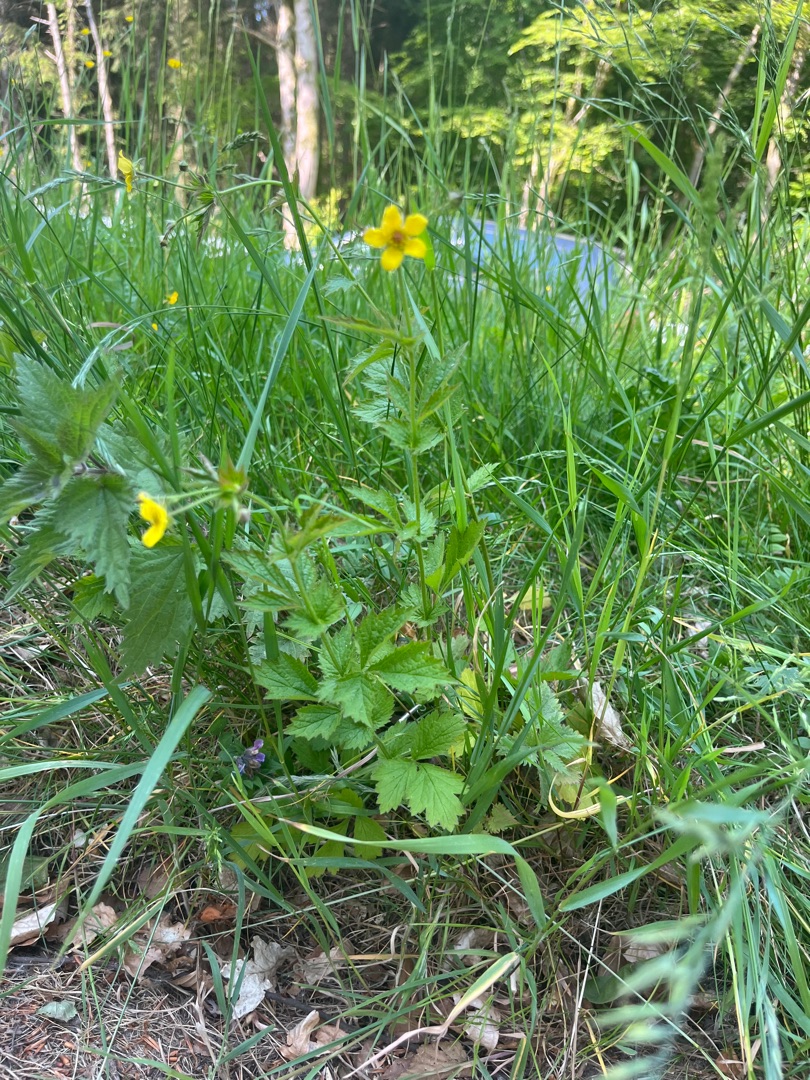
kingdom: Plantae
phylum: Tracheophyta
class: Magnoliopsida
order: Rosales
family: Rosaceae
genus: Geum
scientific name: Geum urbanum
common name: Feber-nellikerod
